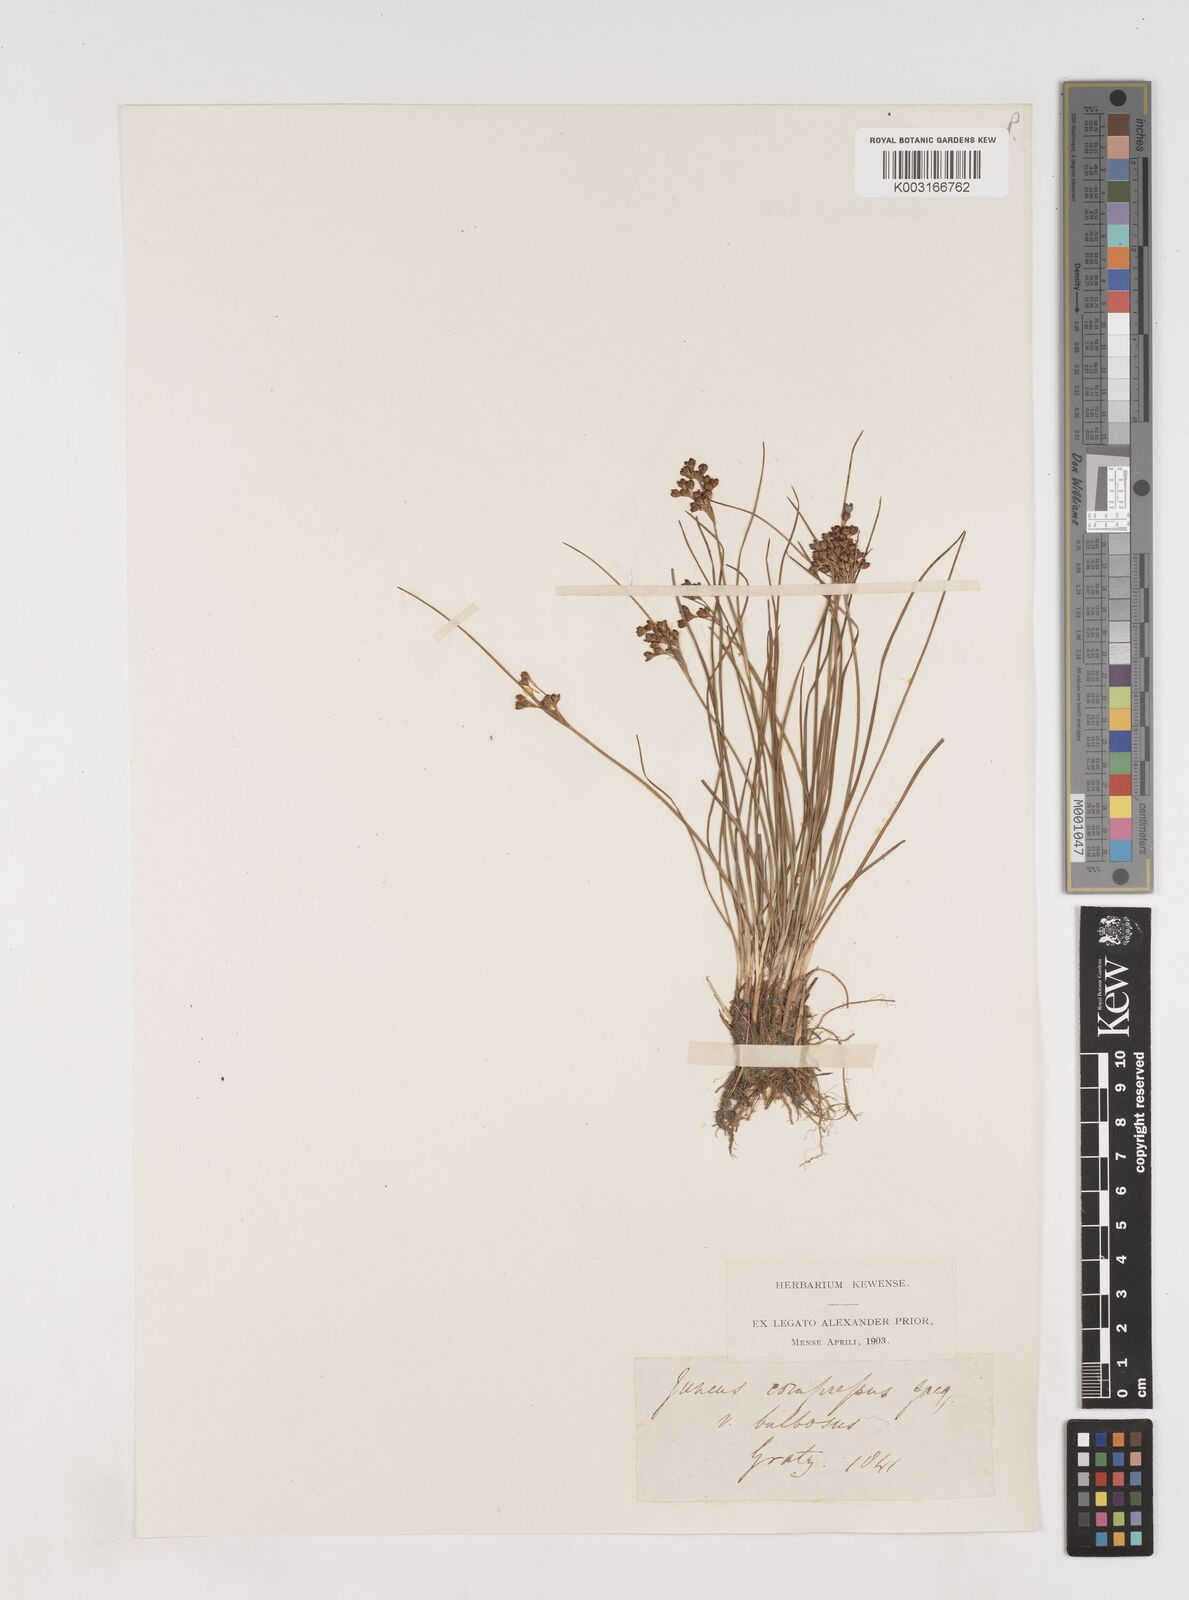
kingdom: Plantae
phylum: Tracheophyta
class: Liliopsida
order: Poales
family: Juncaceae
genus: Juncus
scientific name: Juncus
